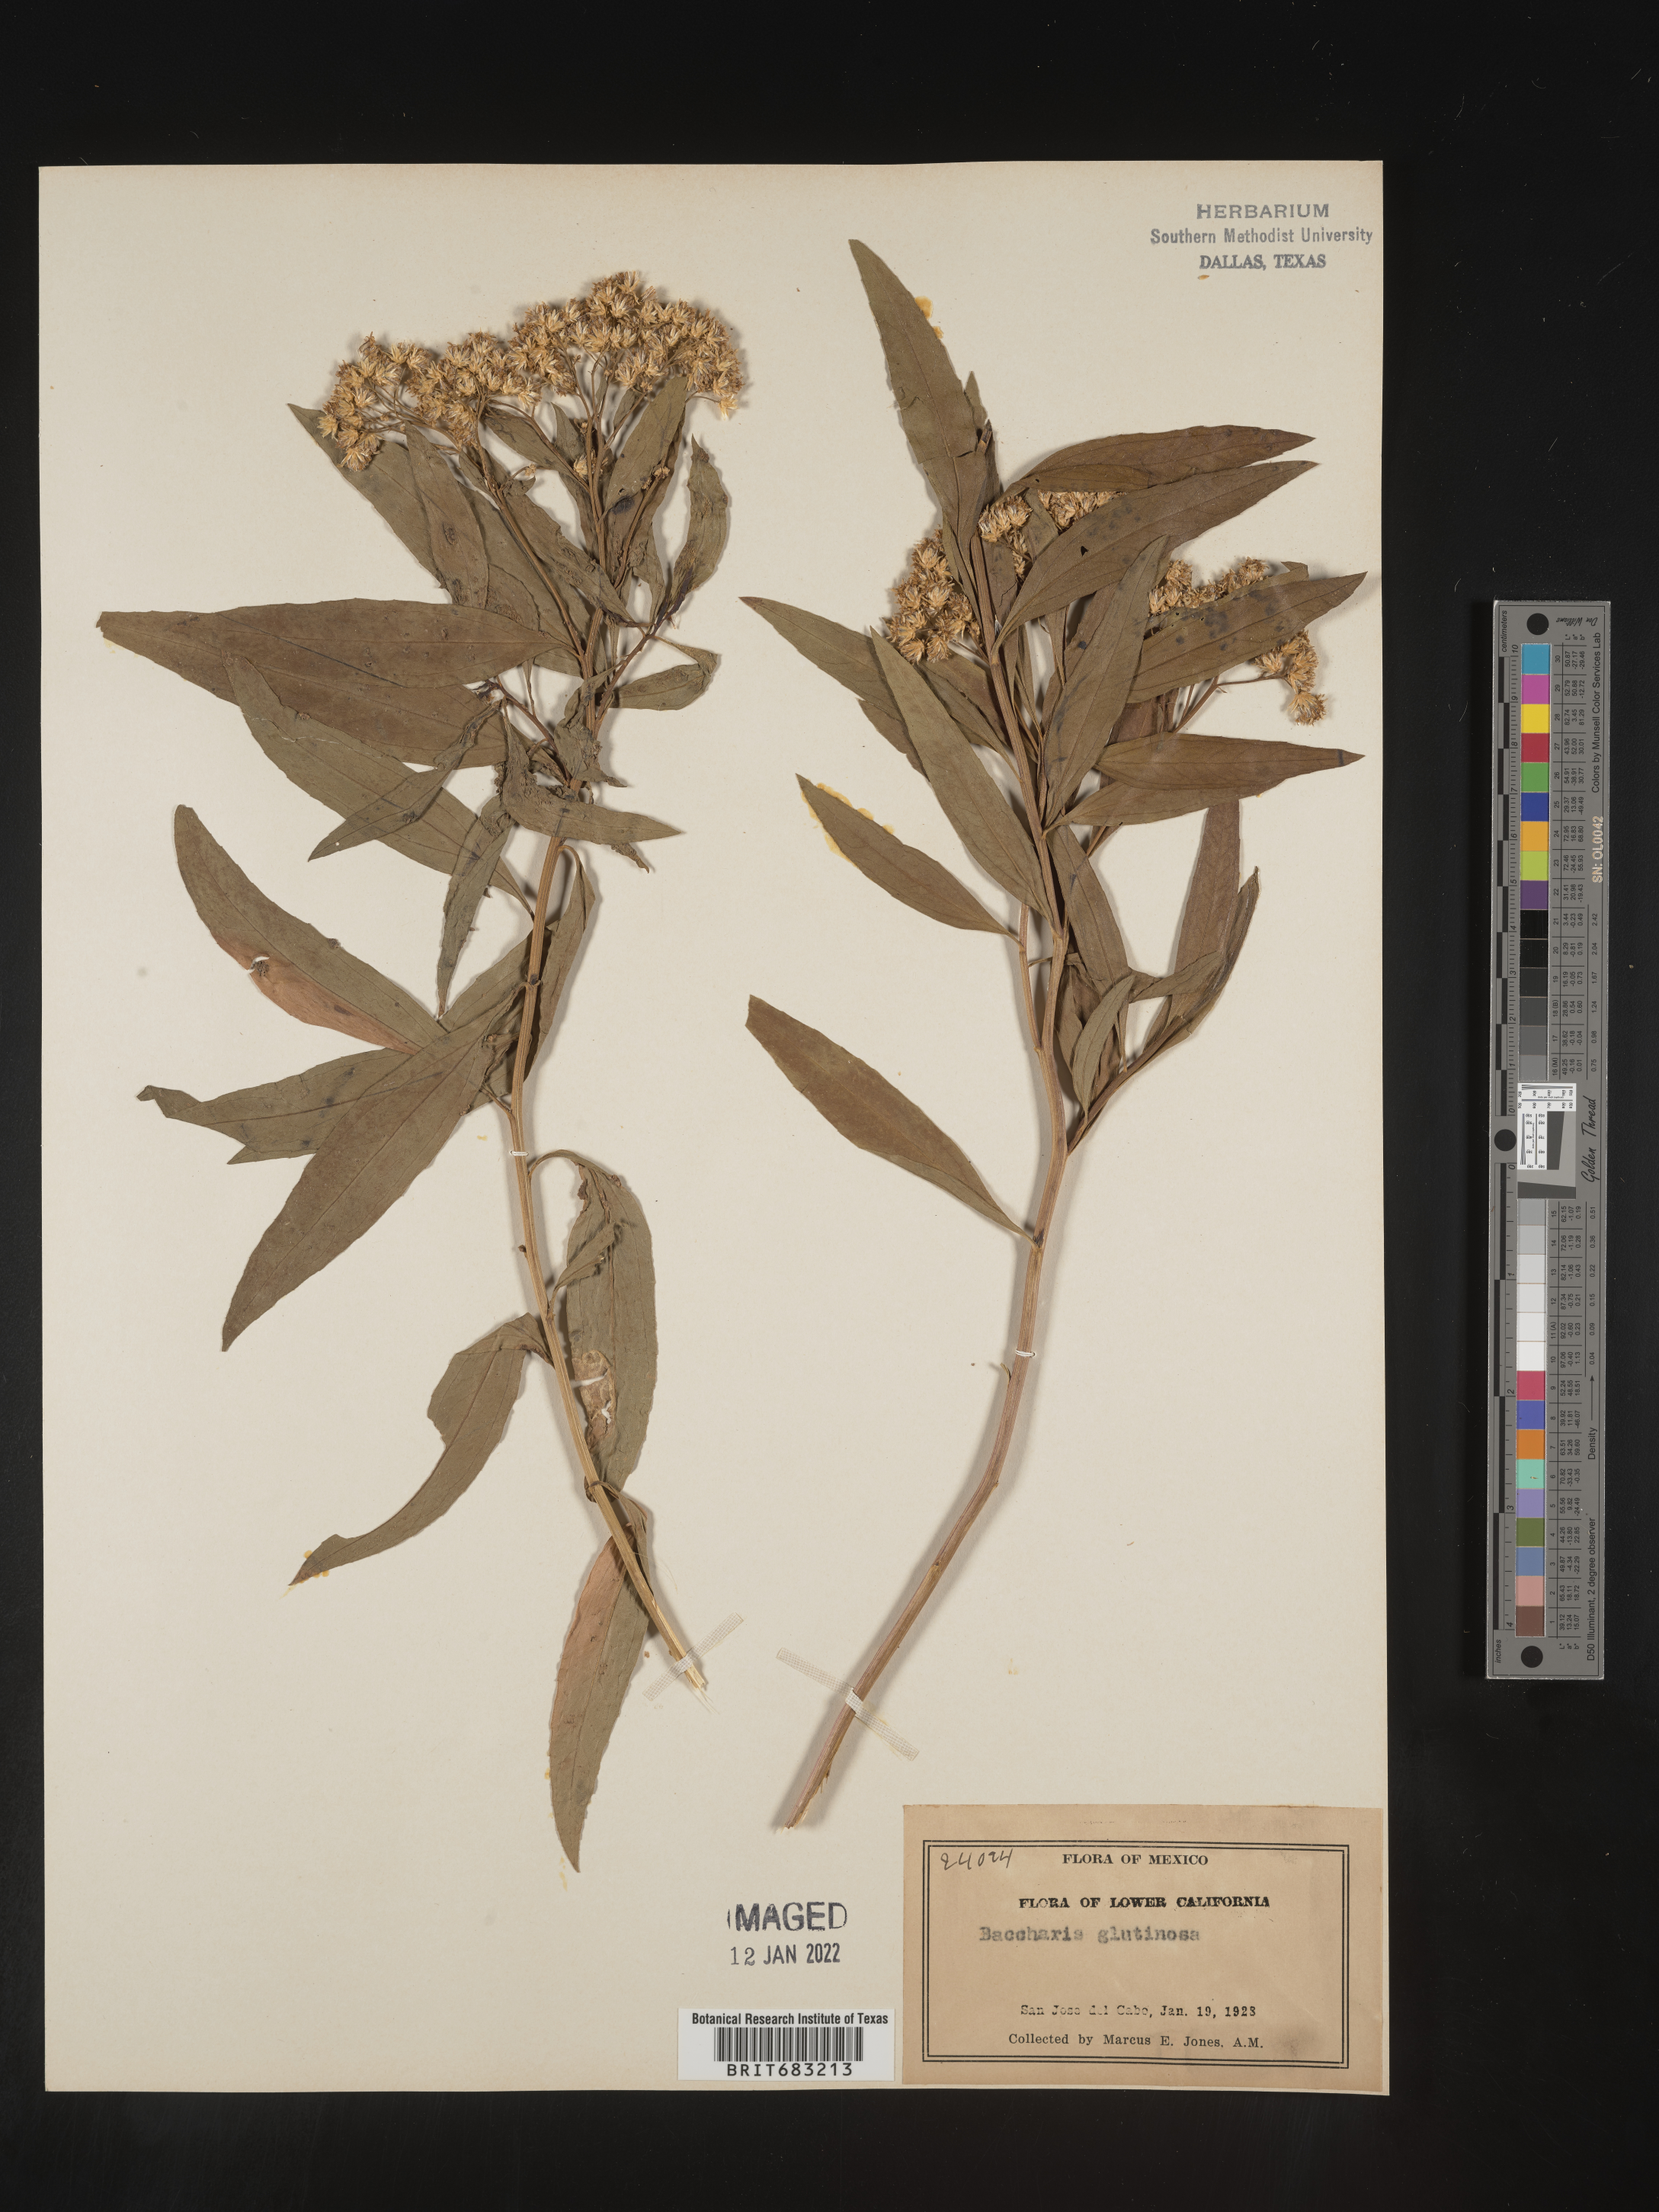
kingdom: Plantae
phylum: Tracheophyta
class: Magnoliopsida
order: Asterales
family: Asteraceae
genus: Baccharis
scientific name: Baccharis salicifolia
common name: Sticky baccharis
